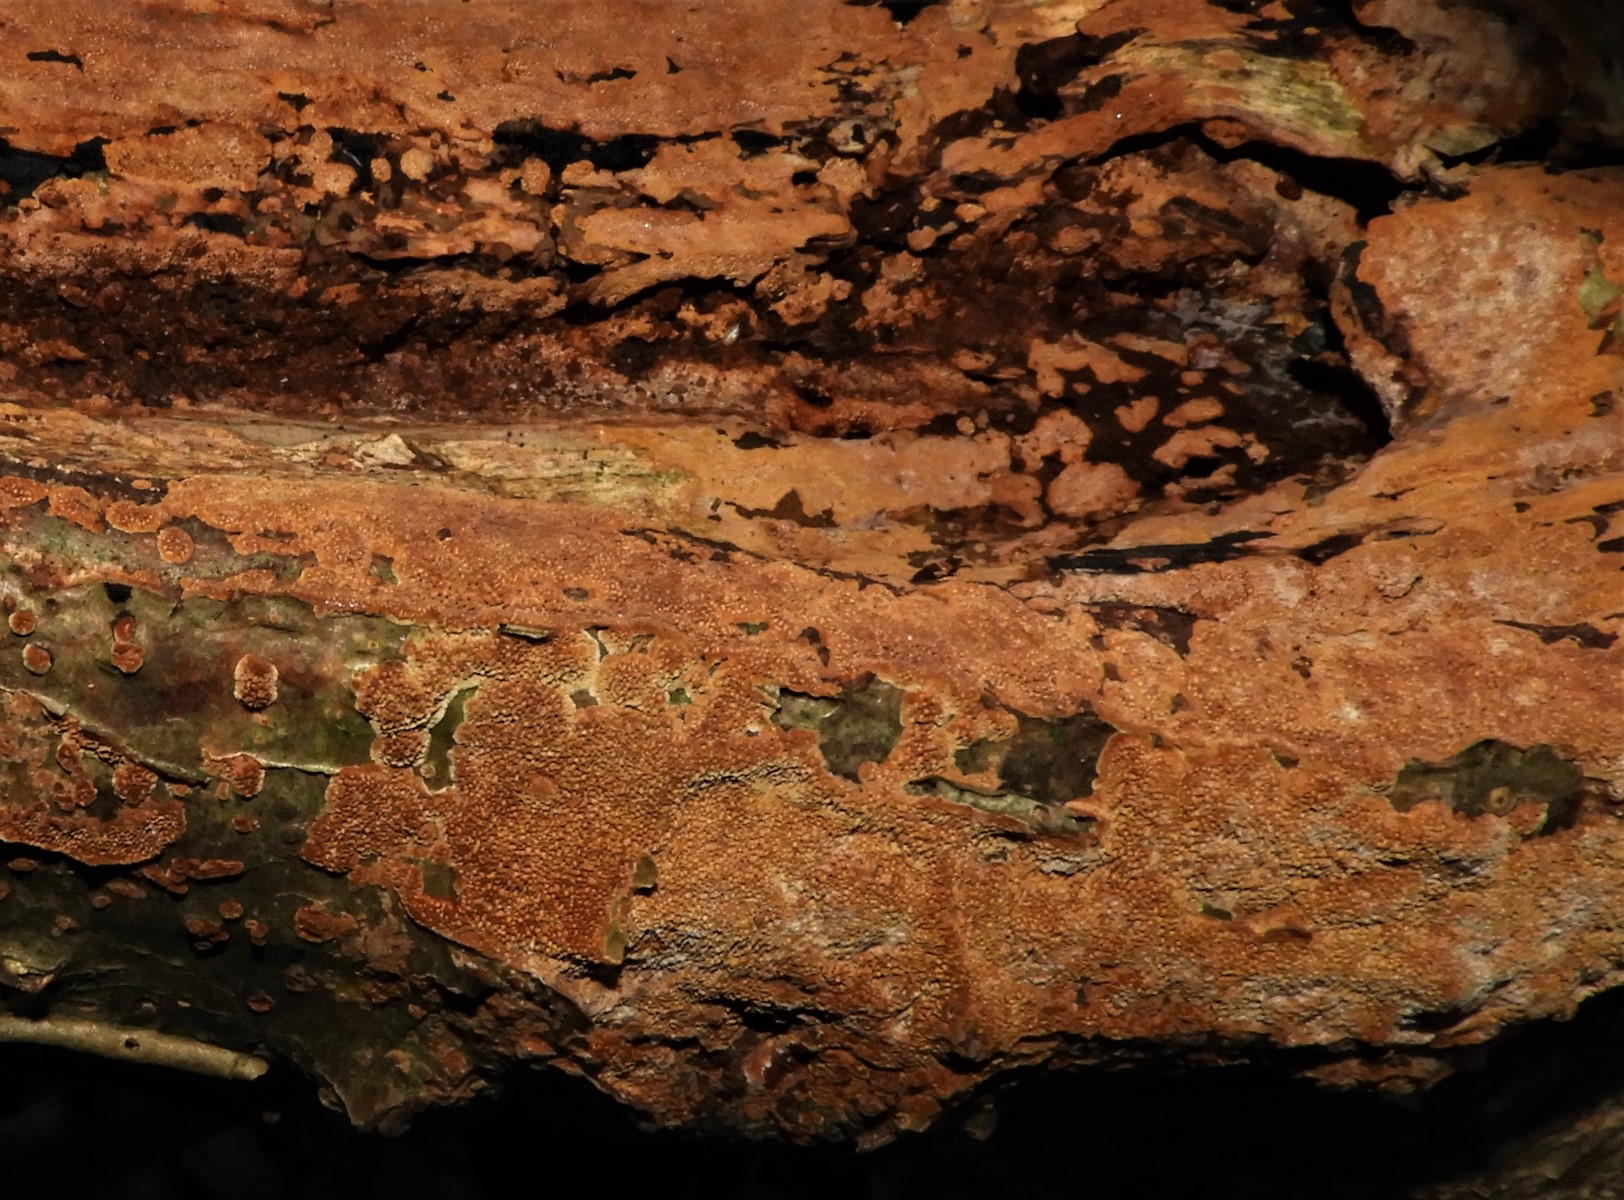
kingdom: Fungi
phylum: Basidiomycota
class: Agaricomycetes
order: Hymenochaetales
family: Hymenochaetaceae
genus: Fuscoporia
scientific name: Fuscoporia
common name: Ildporesvamp
